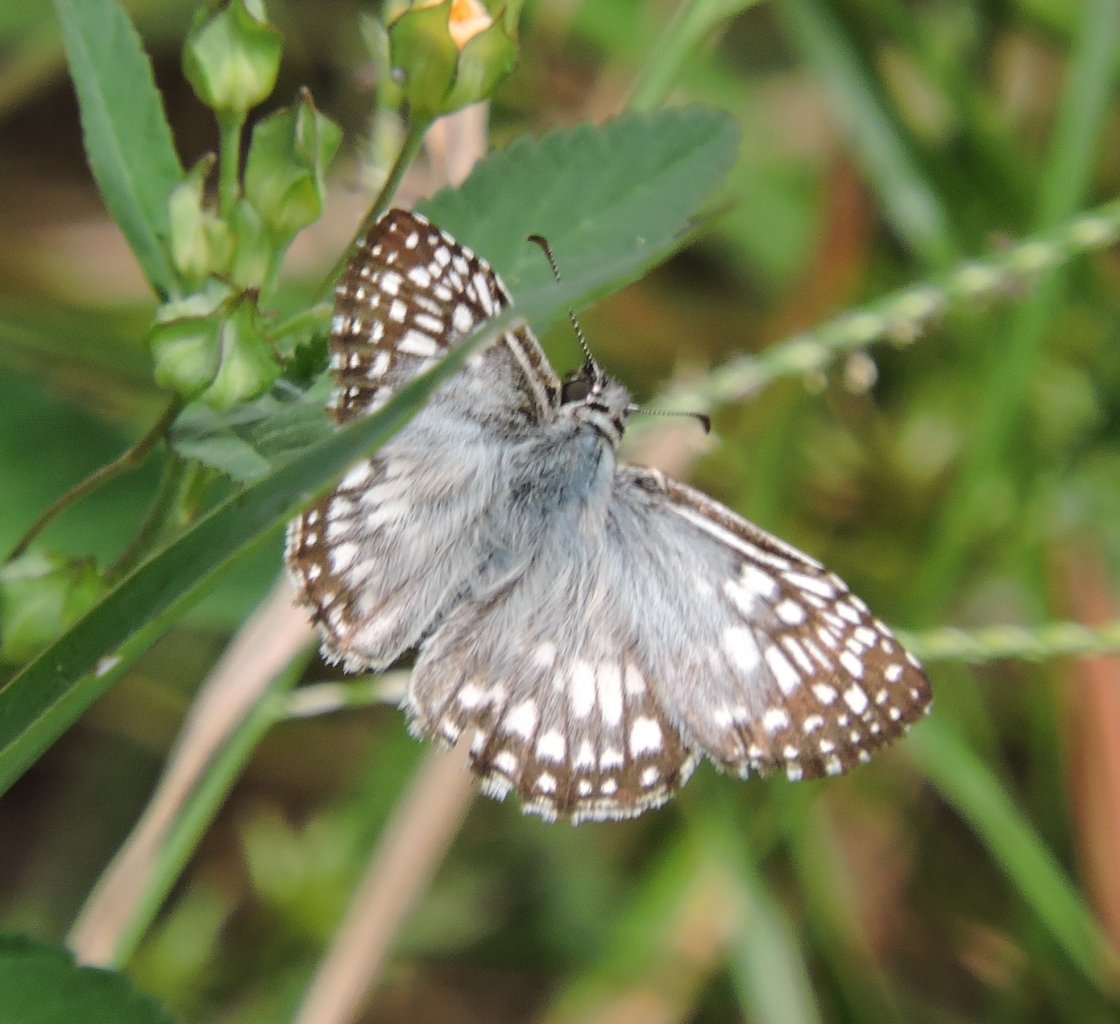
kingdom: Animalia
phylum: Arthropoda
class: Insecta
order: Lepidoptera
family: Hesperiidae
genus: Pyrgus
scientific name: Pyrgus oileus
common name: Tropical Checkered-Skipper
